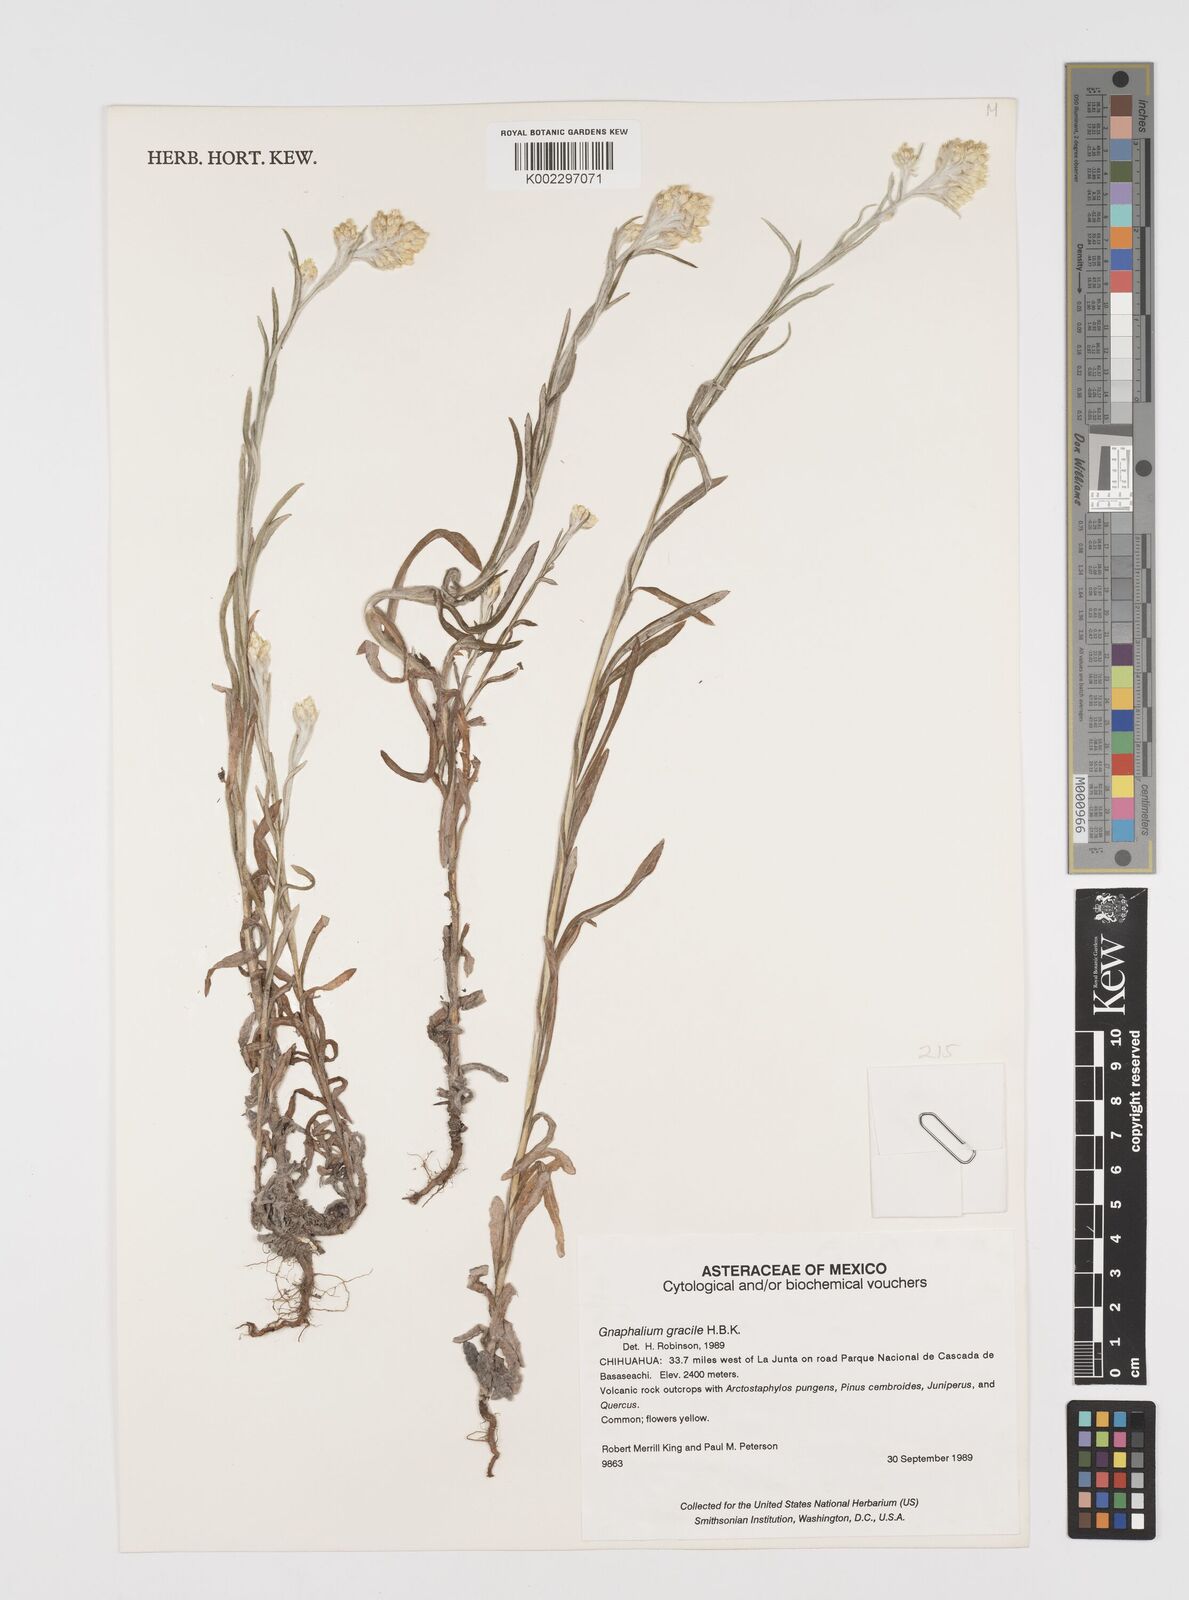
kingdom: Plantae
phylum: Tracheophyta
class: Magnoliopsida
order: Asterales
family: Asteraceae
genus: Pseudognaphalium
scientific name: Pseudognaphalium
